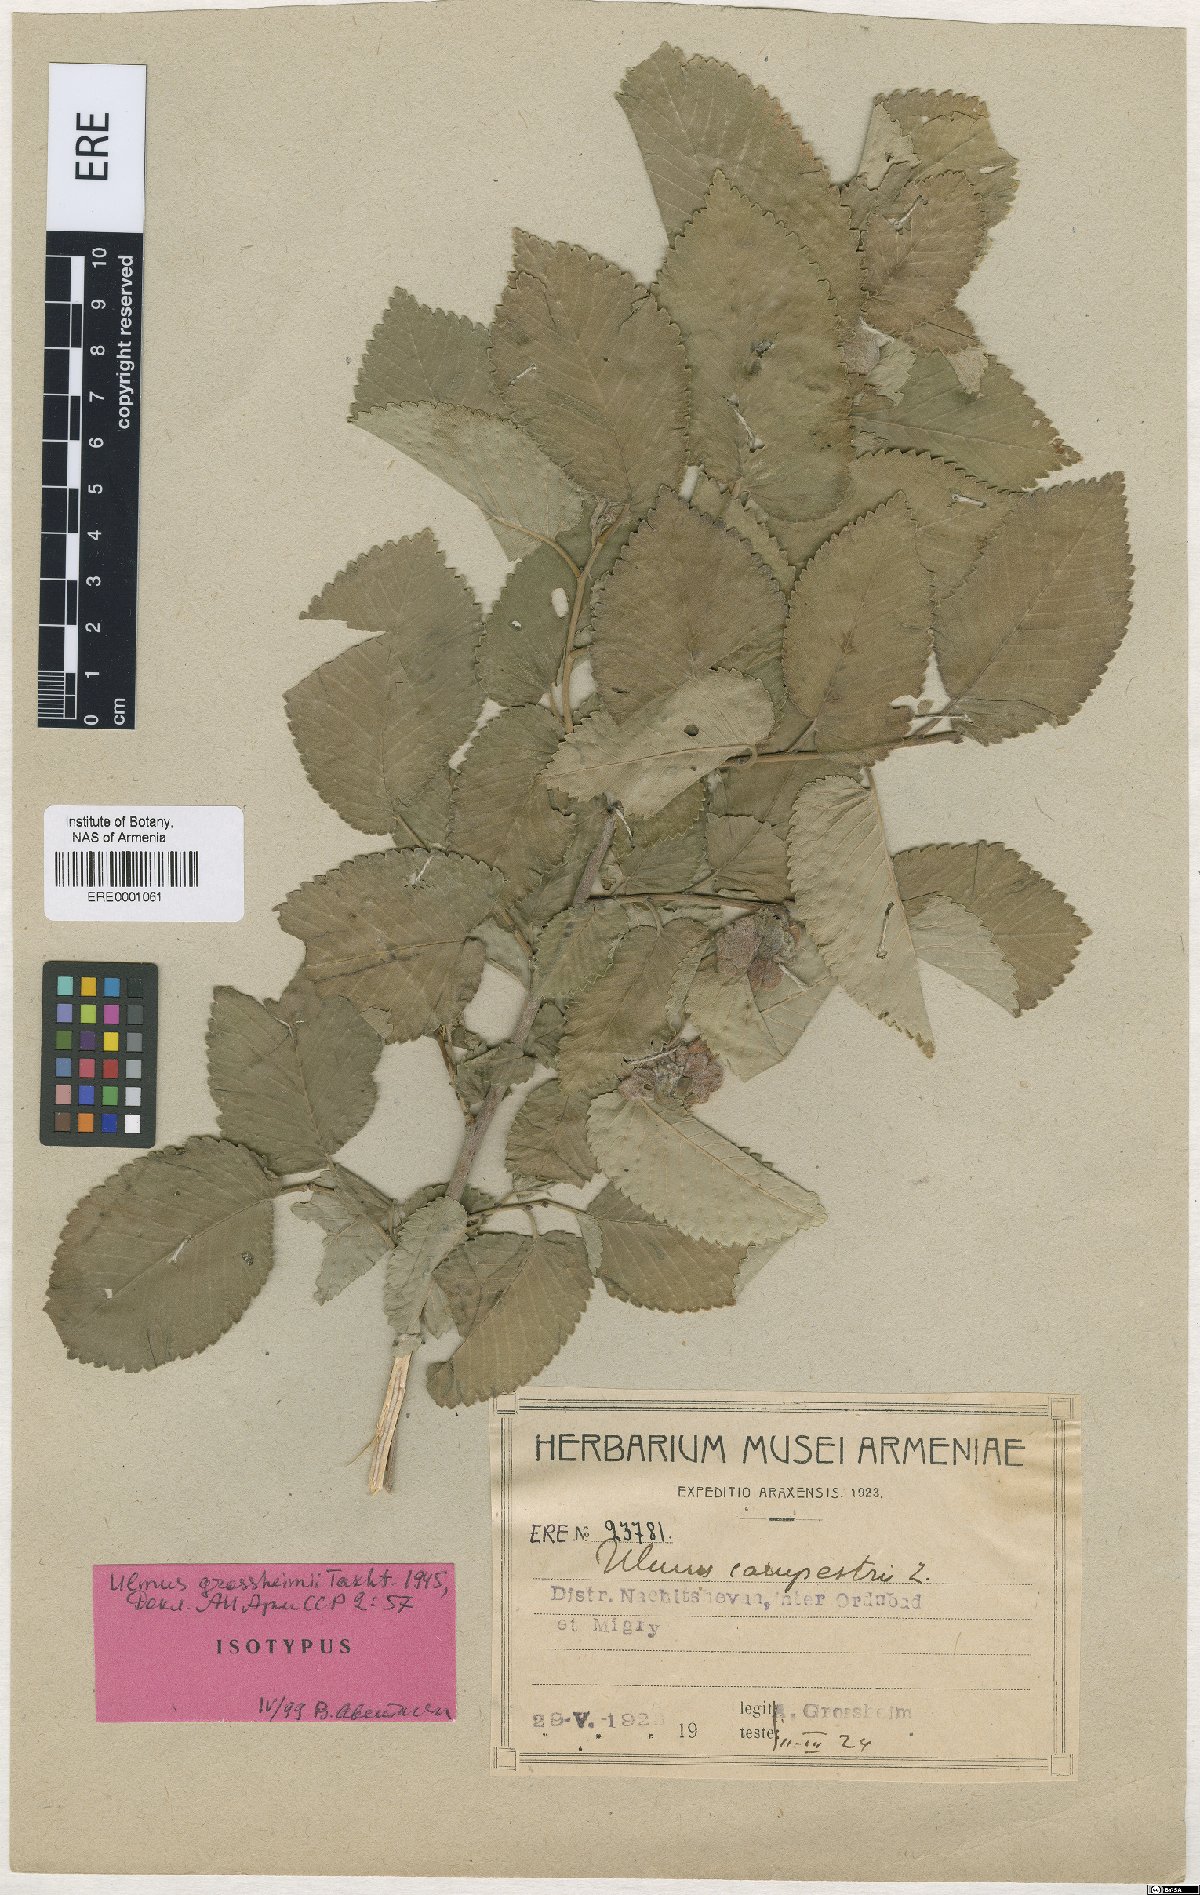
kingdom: Plantae
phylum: Tracheophyta
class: Magnoliopsida
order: Rosales
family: Ulmaceae
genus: Ulmus
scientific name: Ulmus minor
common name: Small-leaved elm
